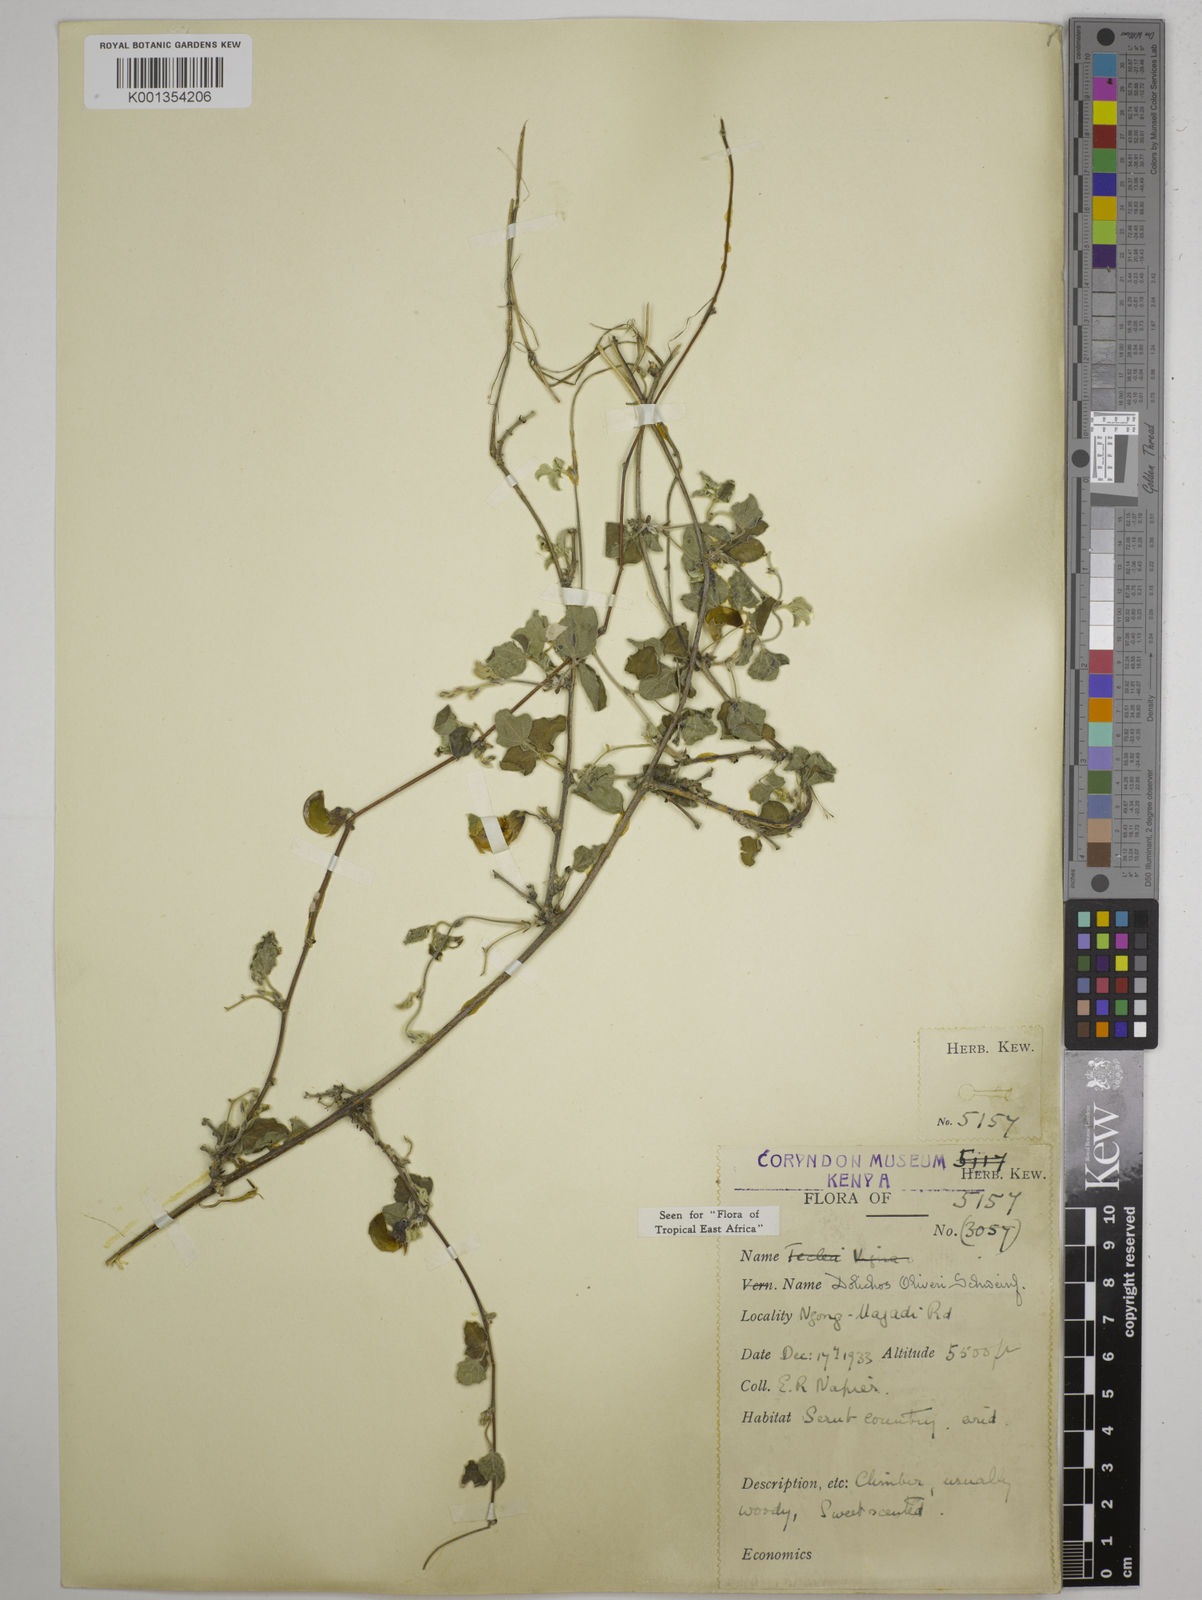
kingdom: Plantae
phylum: Tracheophyta
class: Magnoliopsida
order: Fabales
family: Fabaceae
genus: Dolichos
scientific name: Dolichos
